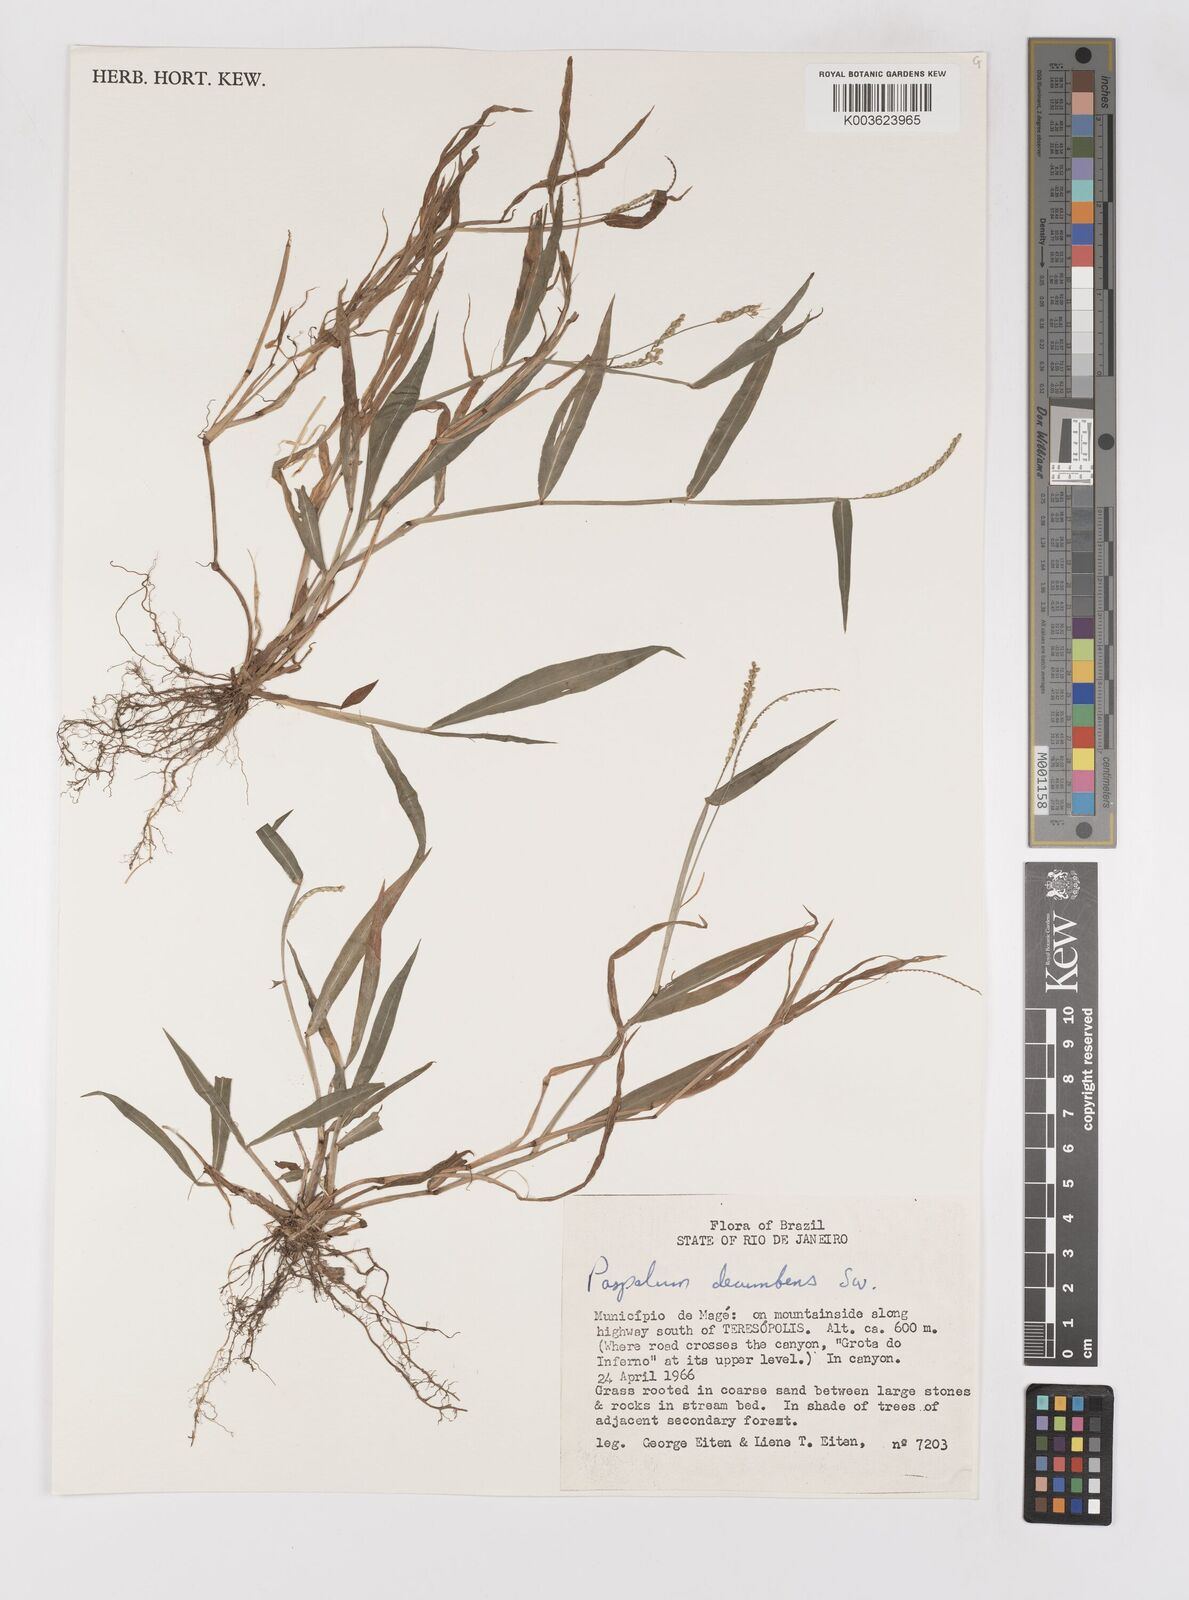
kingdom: Plantae
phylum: Tracheophyta
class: Liliopsida
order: Poales
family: Poaceae
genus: Paspalum
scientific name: Paspalum nutans
